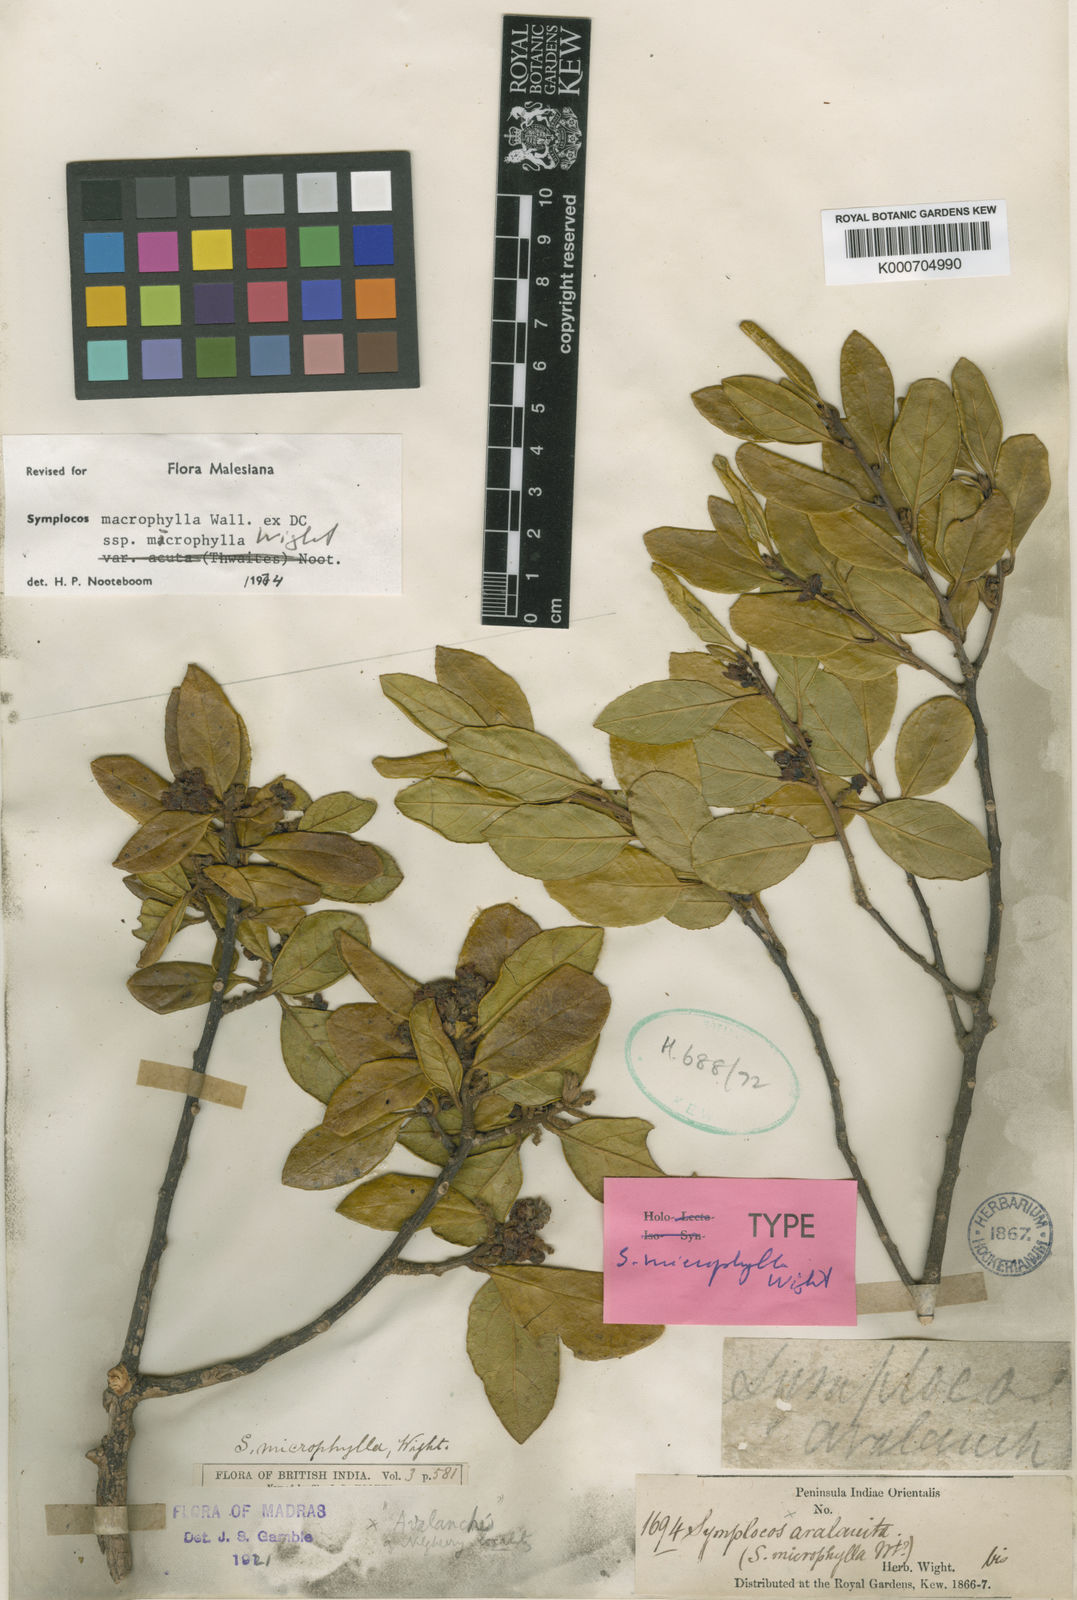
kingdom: Plantae
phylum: Tracheophyta
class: Magnoliopsida
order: Ericales
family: Symplocaceae
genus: Symplocos
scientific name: Symplocos
